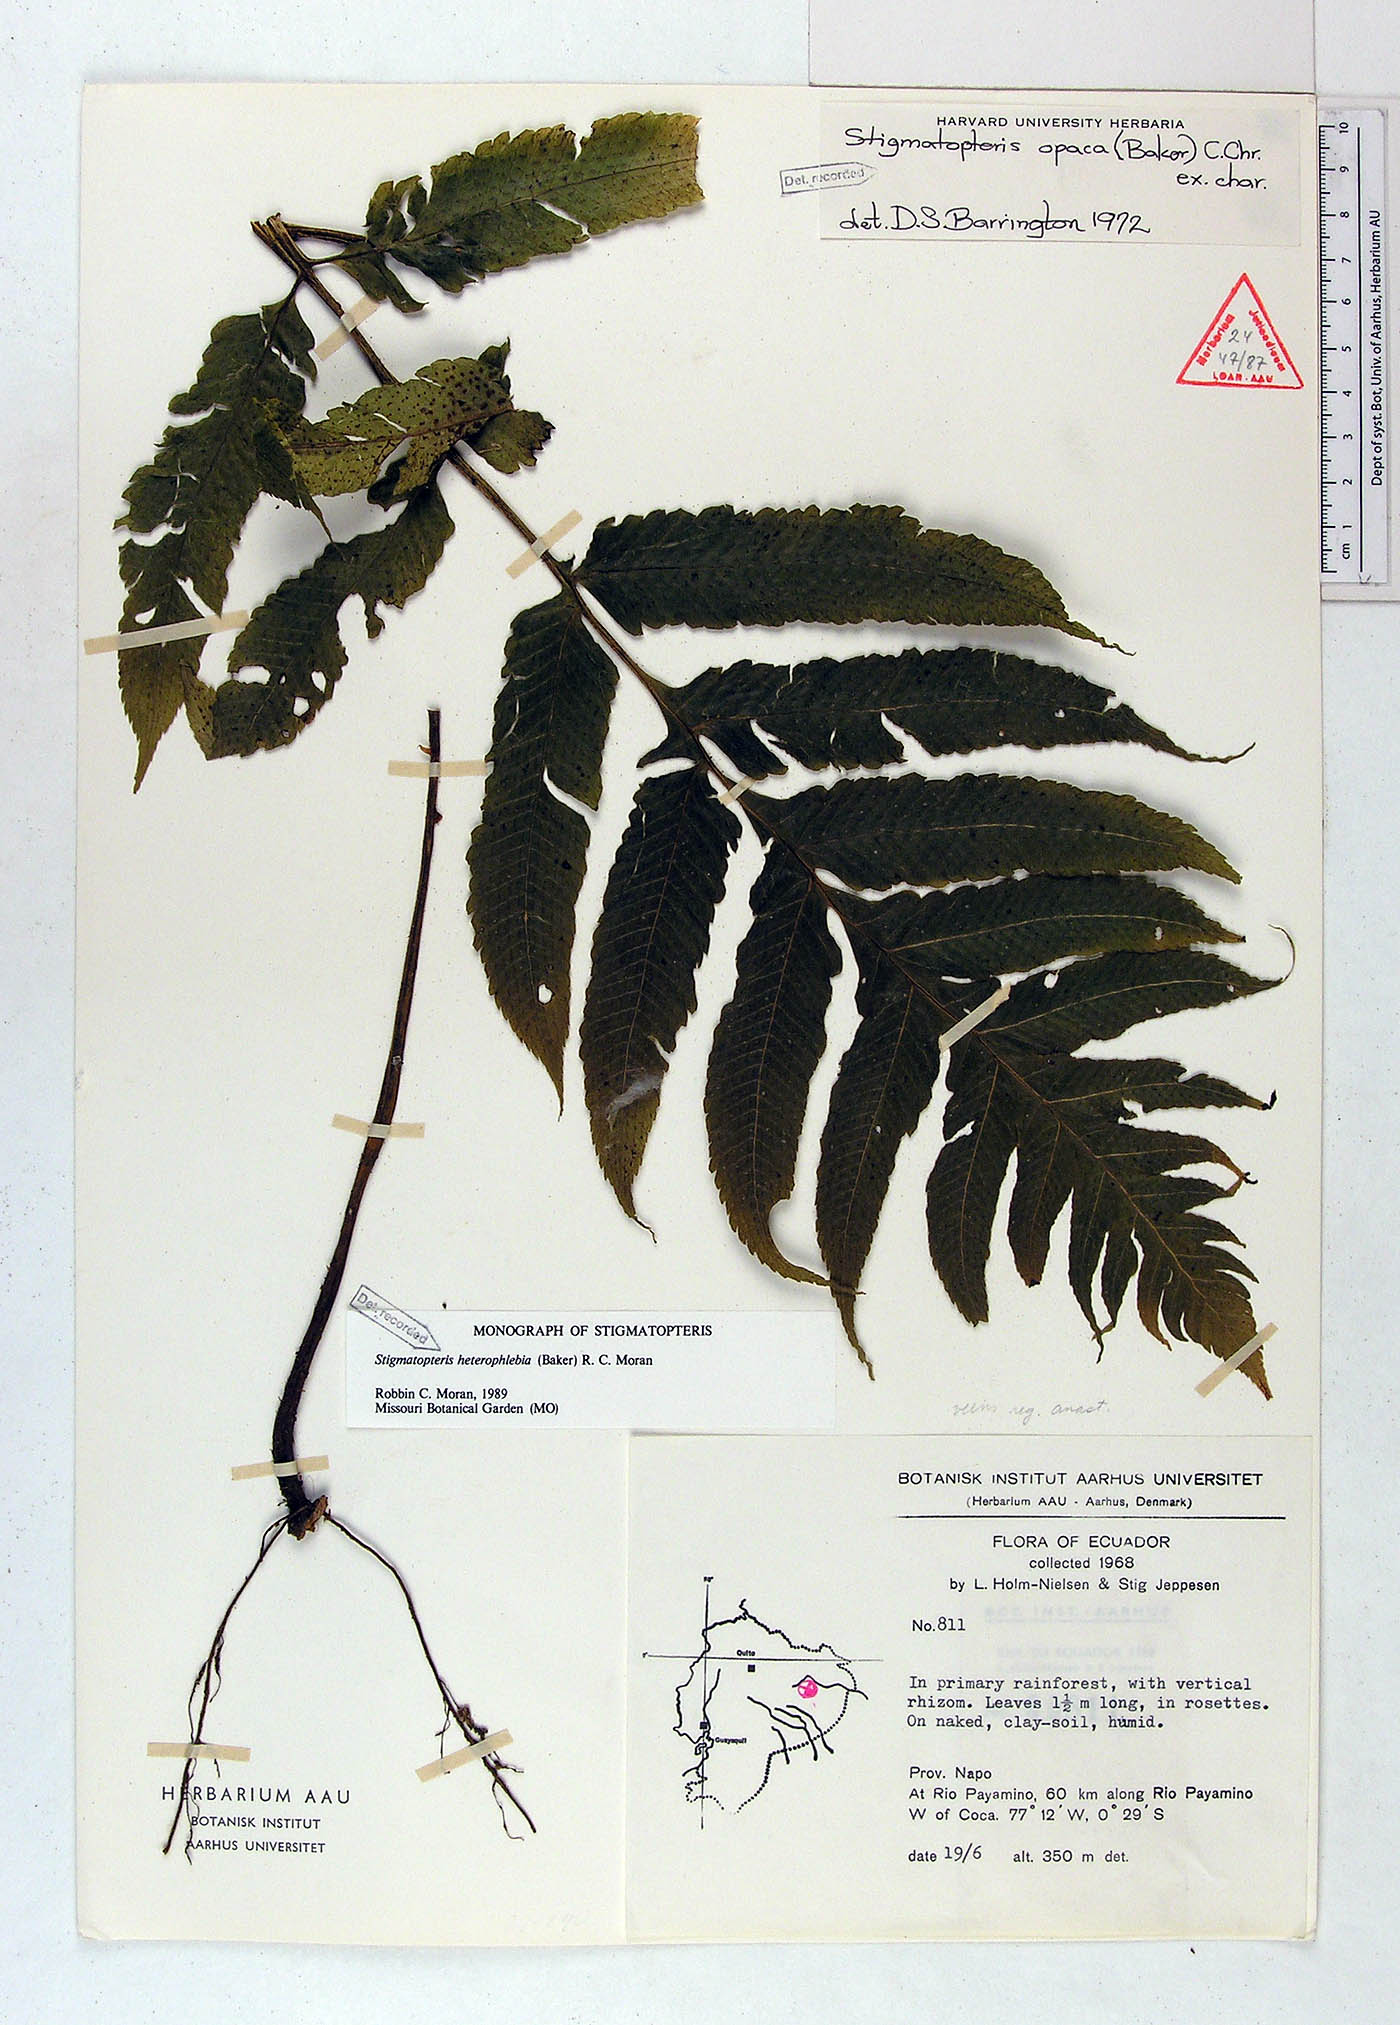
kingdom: Plantae
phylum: Tracheophyta
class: Polypodiopsida
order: Polypodiales
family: Dryopteridaceae
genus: Stigmatopteris
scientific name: Stigmatopteris heterophlebia
